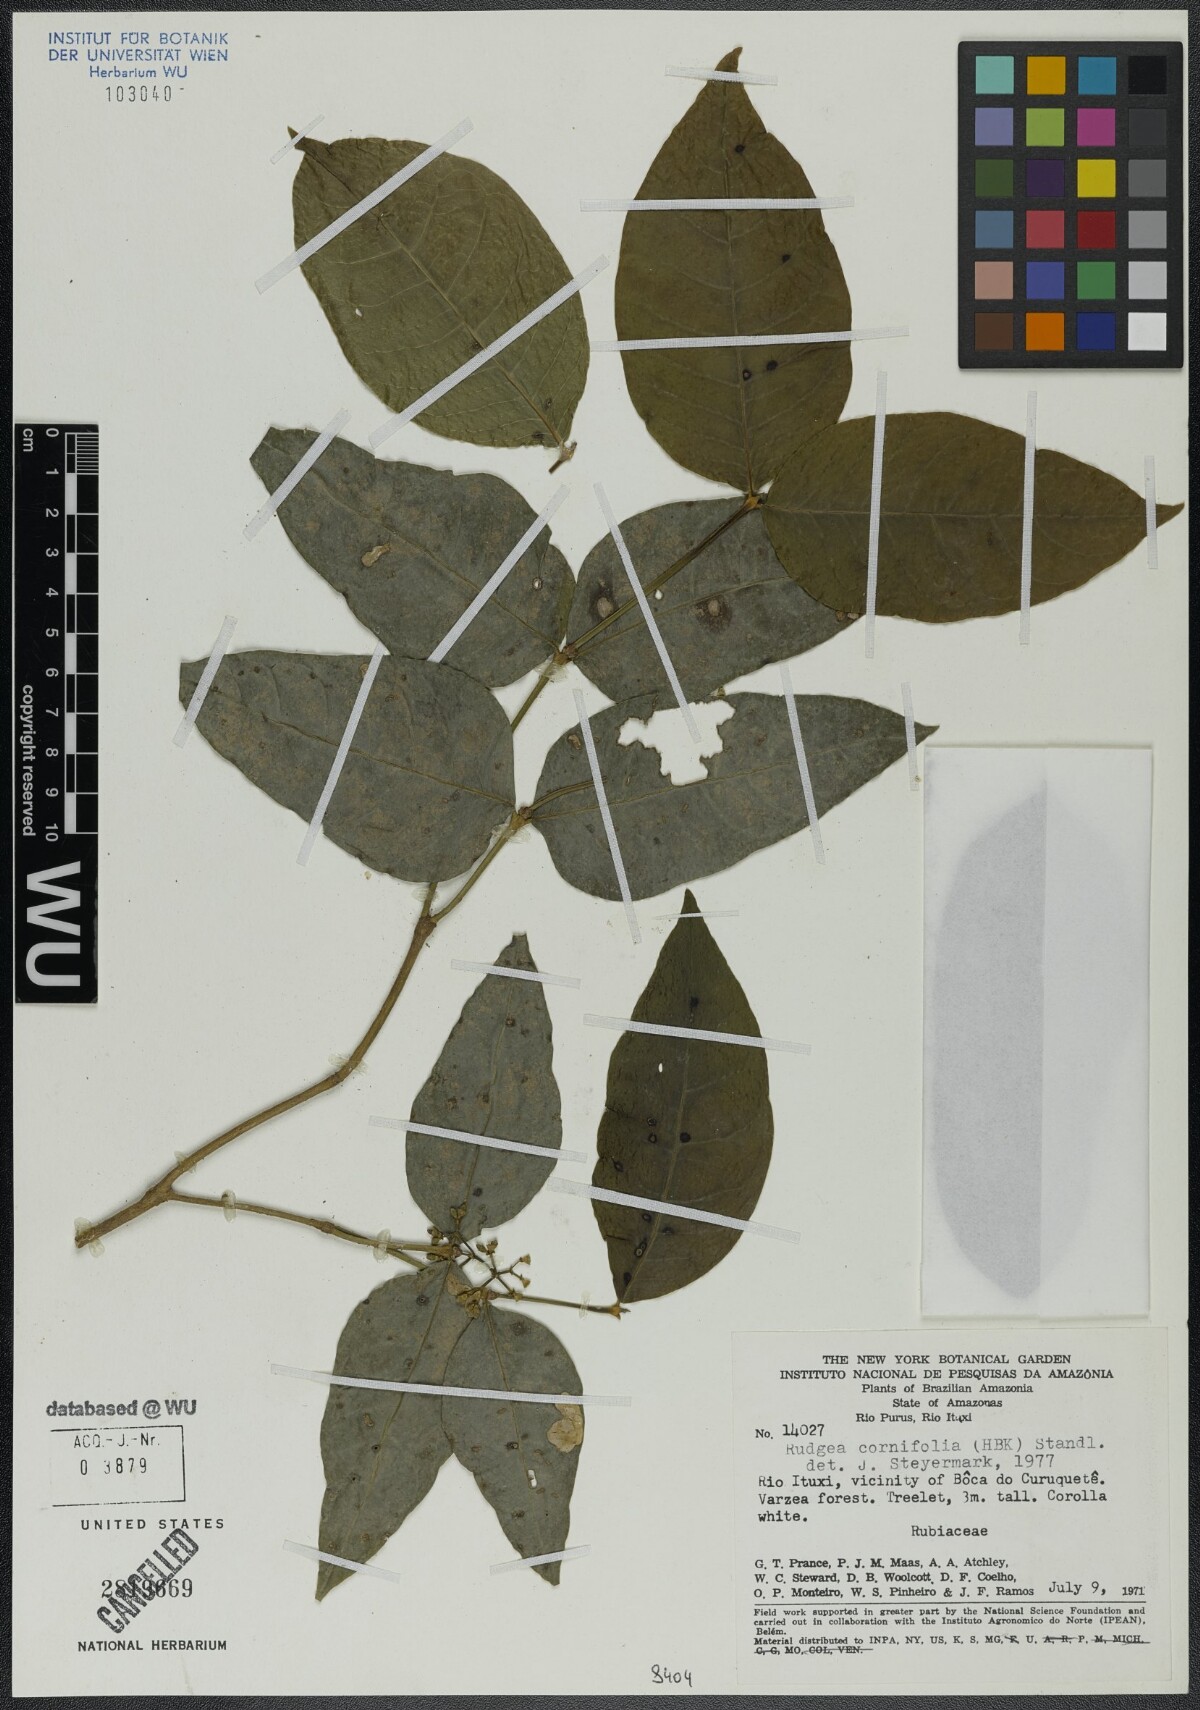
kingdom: Plantae
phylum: Tracheophyta
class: Magnoliopsida
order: Gentianales
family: Rubiaceae
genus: Rudgea
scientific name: Rudgea cornifolia
